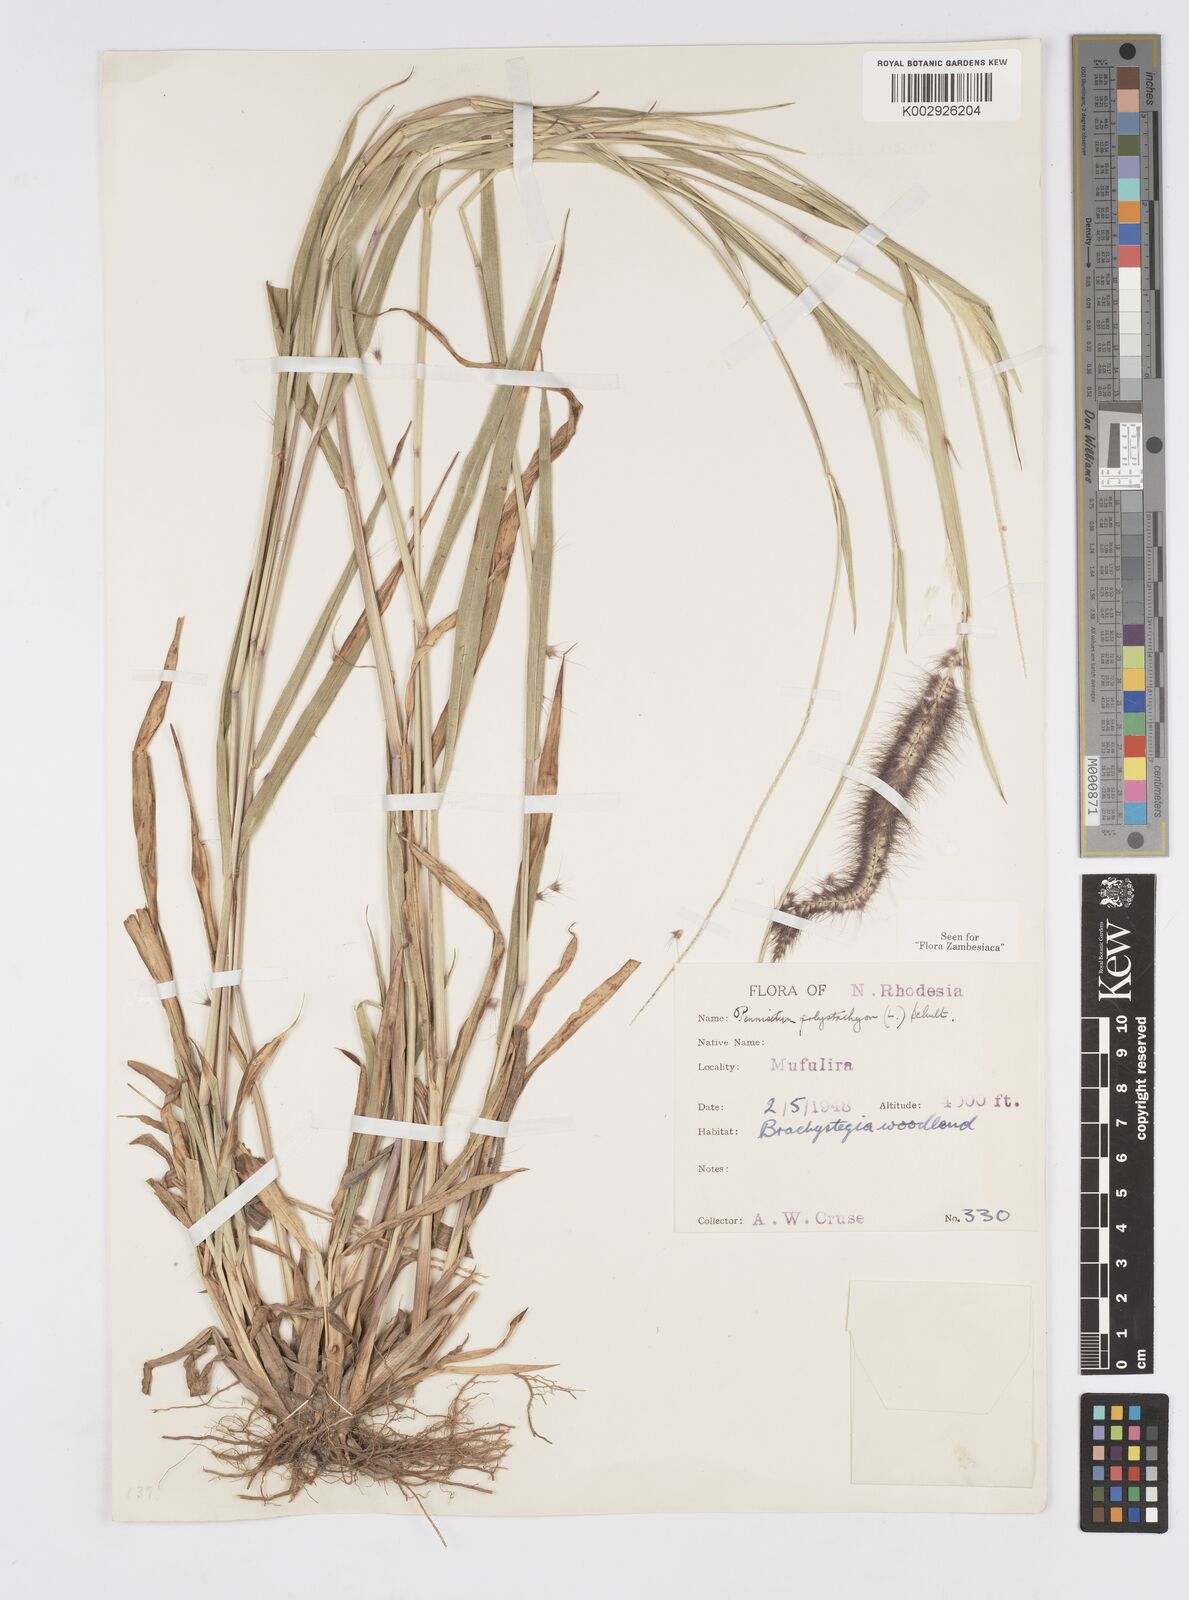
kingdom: Plantae
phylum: Tracheophyta
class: Liliopsida
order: Poales
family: Poaceae
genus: Setaria
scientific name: Setaria parviflora
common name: Knotroot bristle-grass
